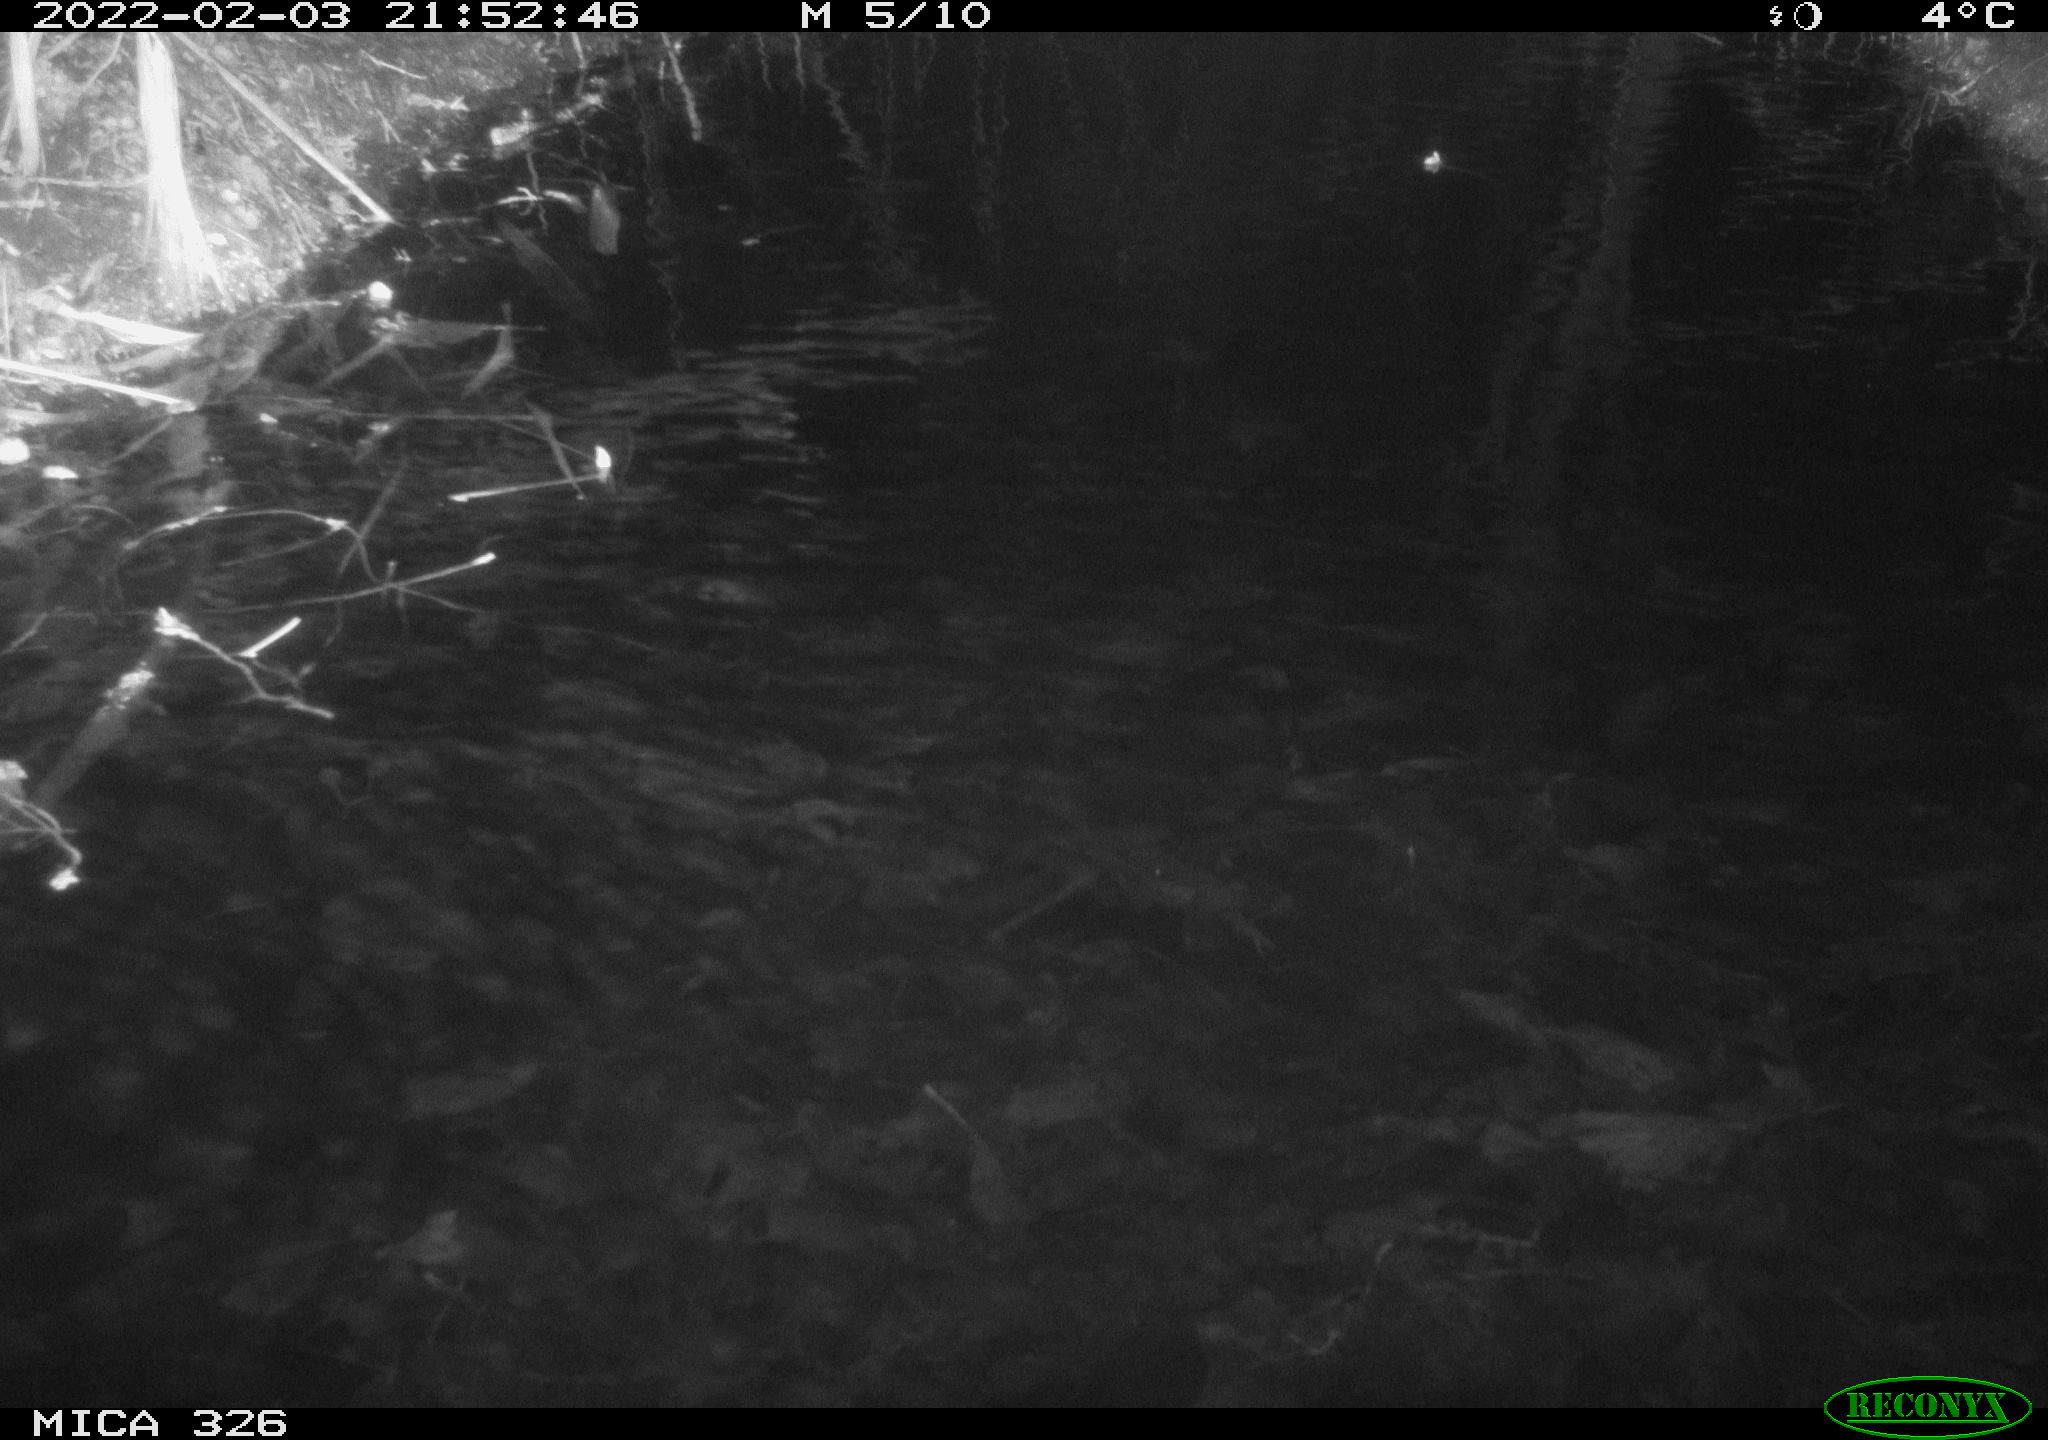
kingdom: Animalia
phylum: Chordata
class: Mammalia
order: Rodentia
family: Muridae
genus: Rattus
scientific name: Rattus norvegicus
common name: Brown rat
